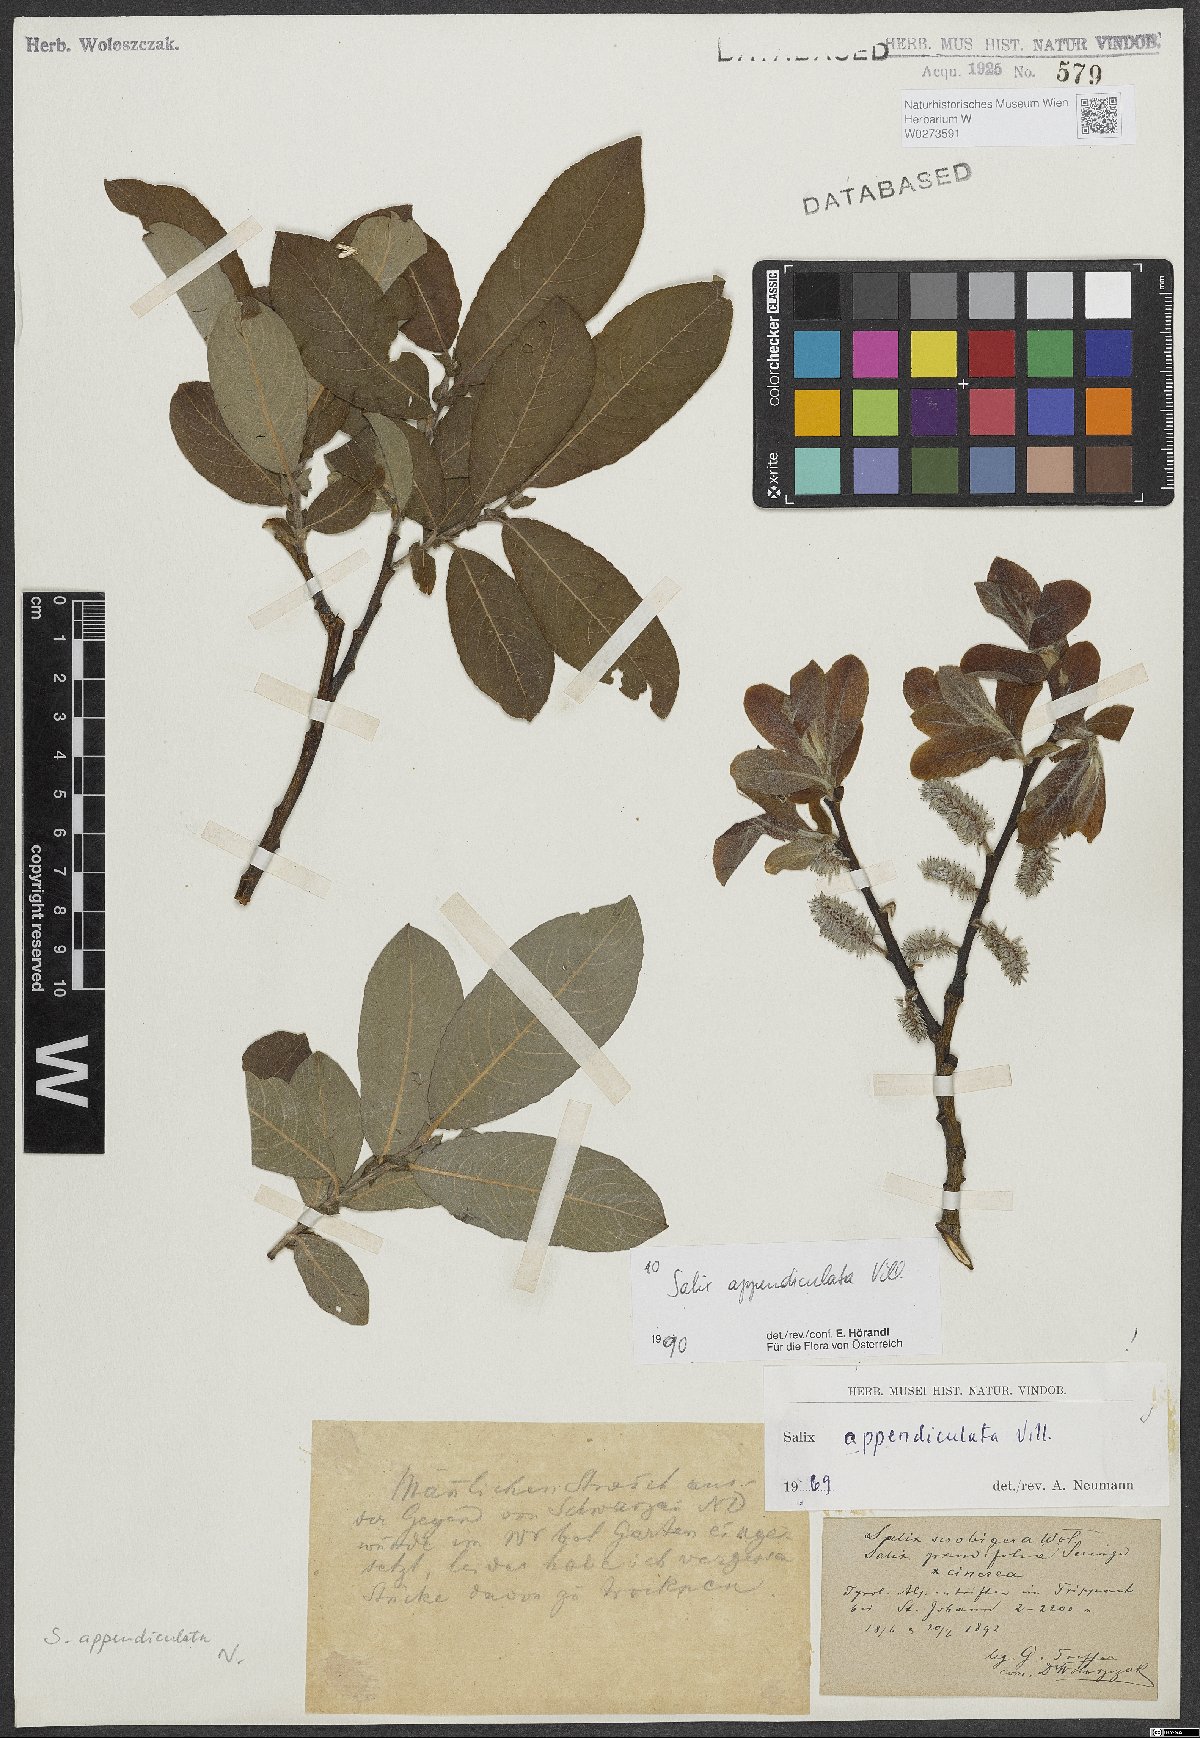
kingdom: Plantae
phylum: Tracheophyta
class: Magnoliopsida
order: Malpighiales
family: Salicaceae
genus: Salix
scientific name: Salix appendiculata
